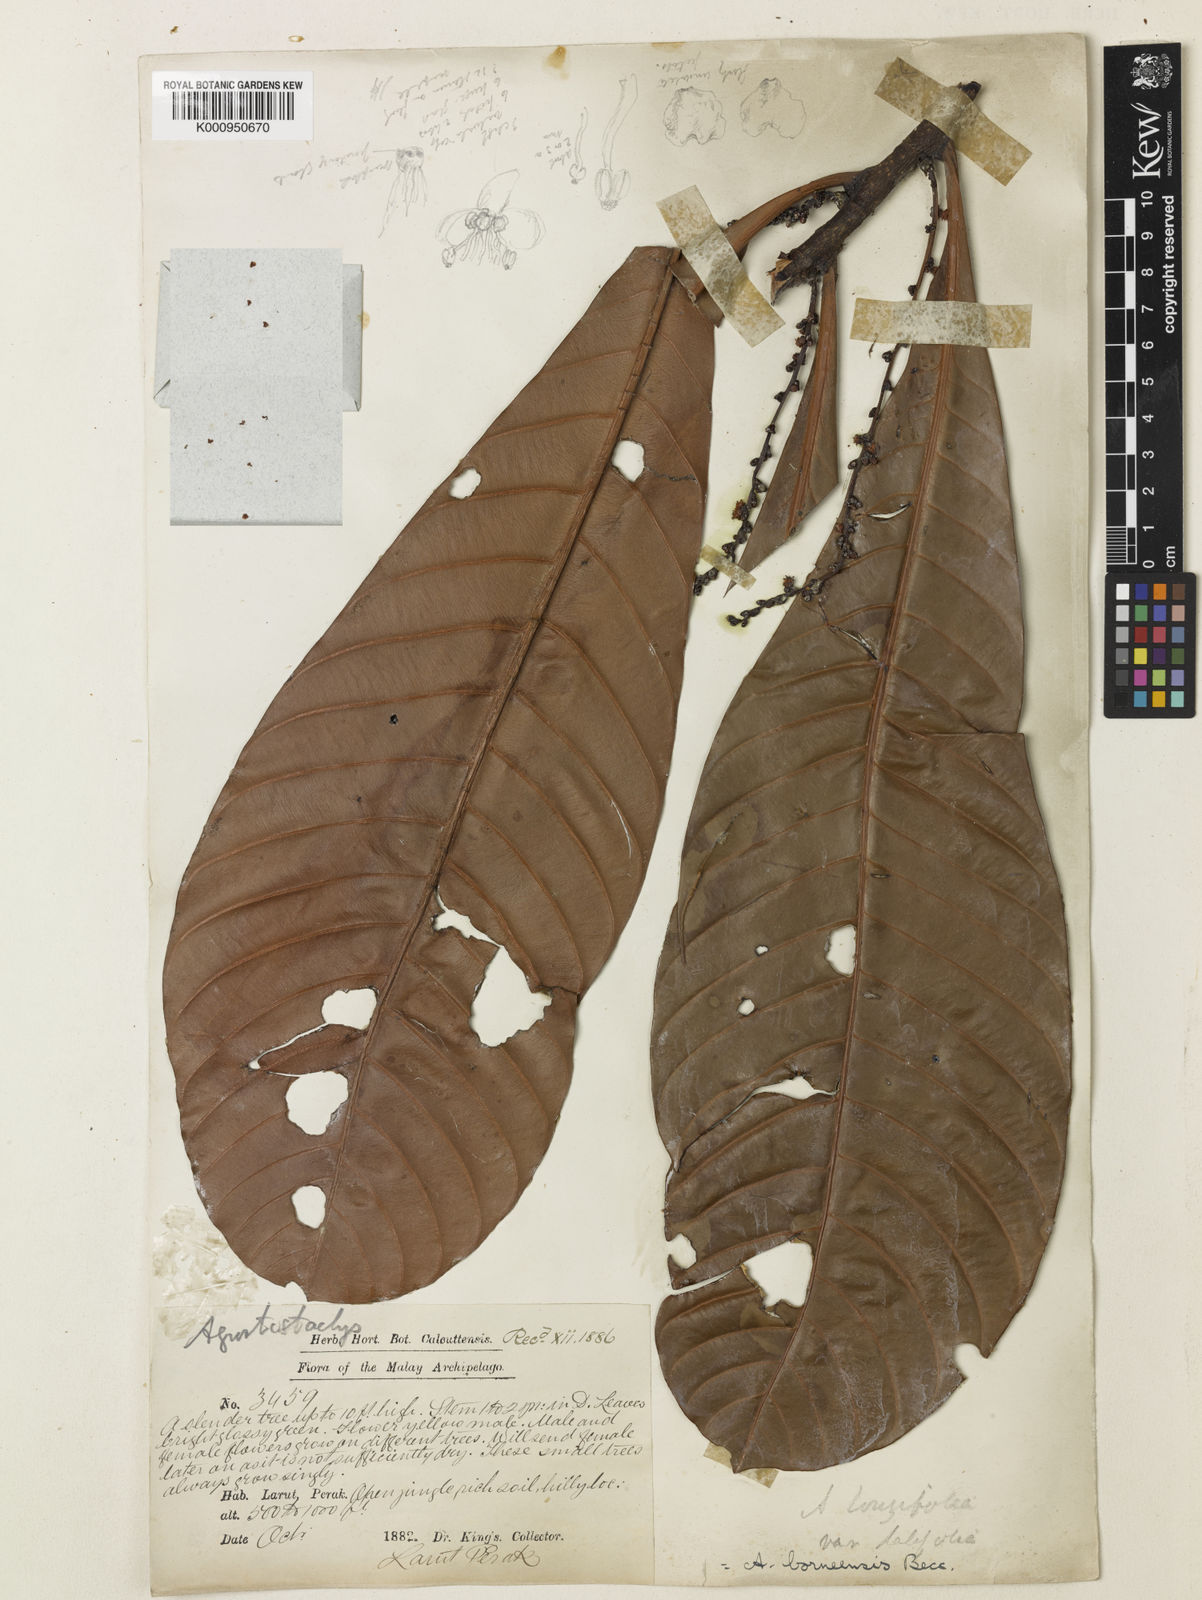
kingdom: Plantae
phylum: Tracheophyta
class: Magnoliopsida
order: Malpighiales
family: Euphorbiaceae
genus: Agrostistachys
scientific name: Agrostistachys borneensis
